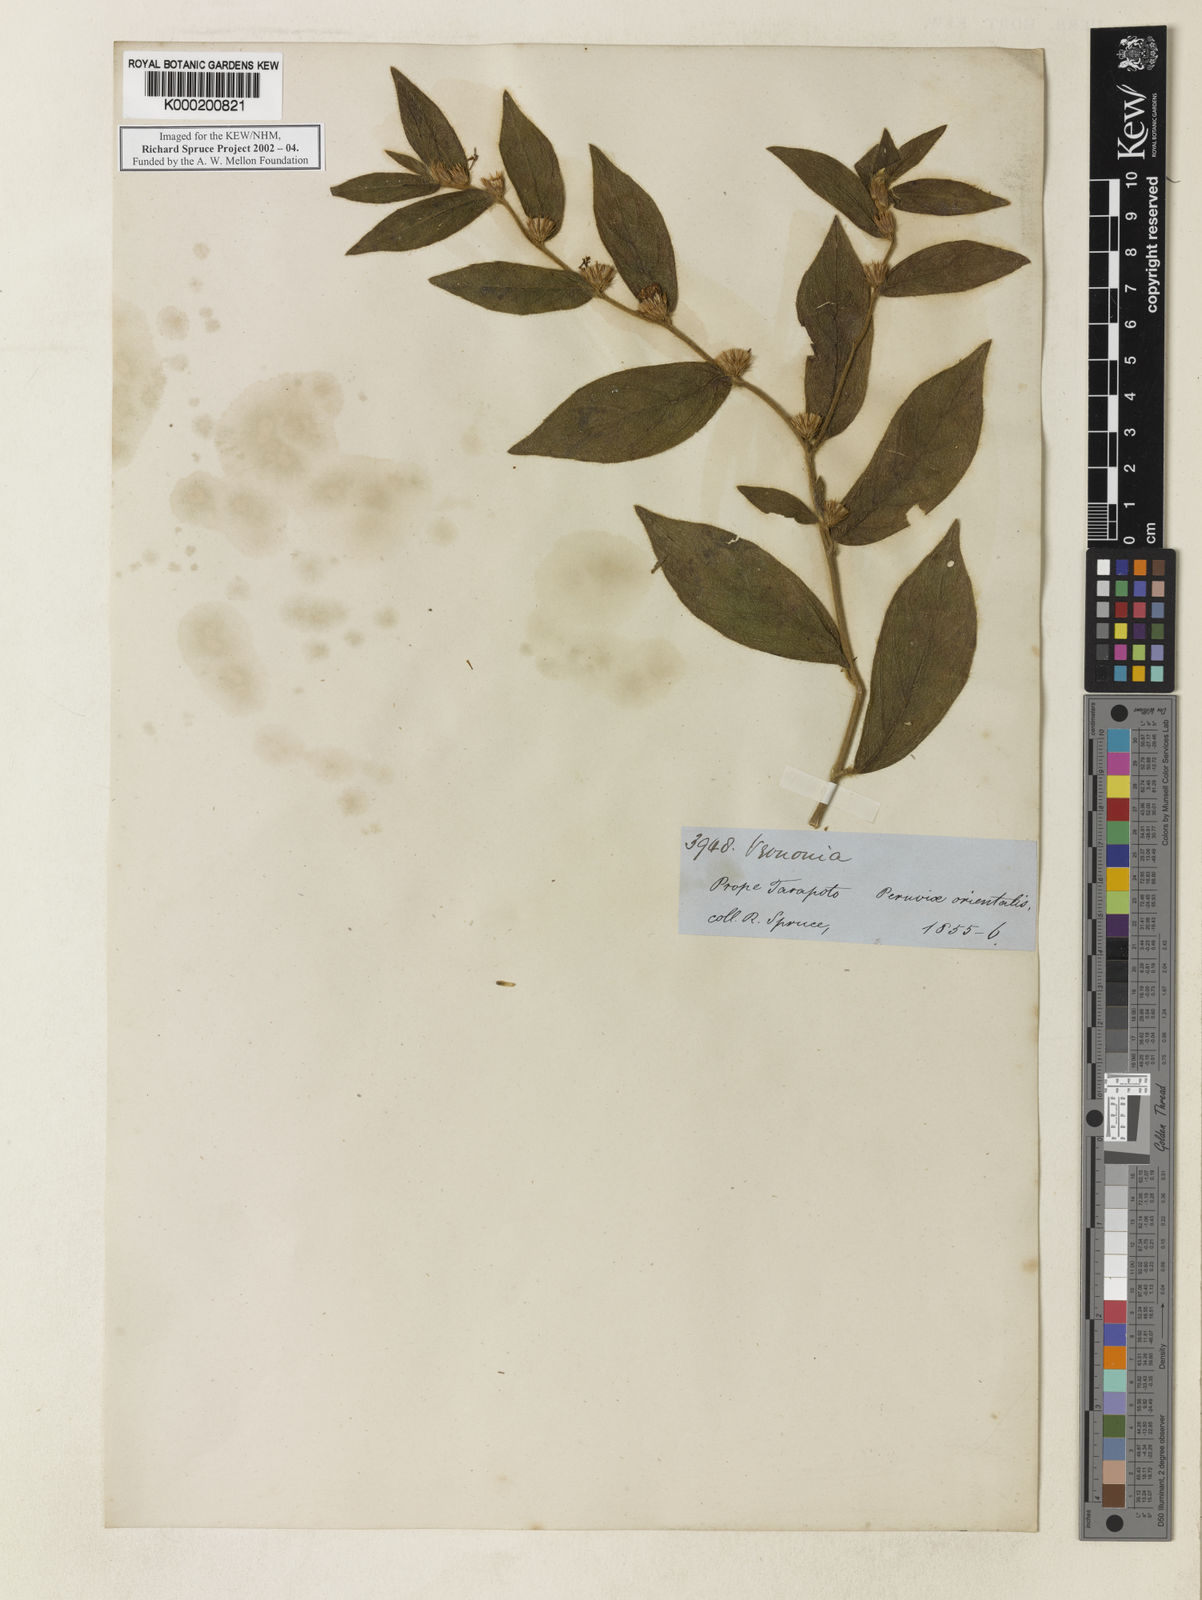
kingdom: Plantae
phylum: Tracheophyta
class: Magnoliopsida
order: Asterales
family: Asteraceae
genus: Vernonia
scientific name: Vernonia
